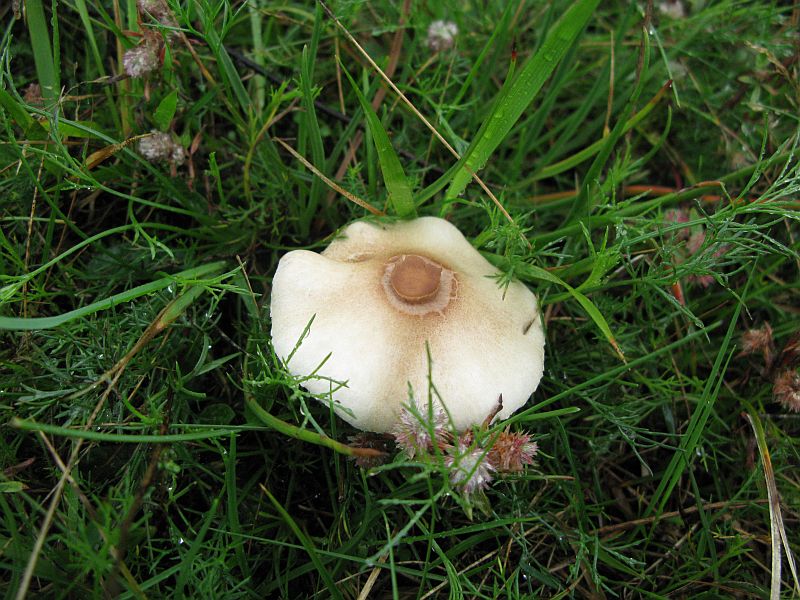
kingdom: Fungi
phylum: Basidiomycota
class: Agaricomycetes
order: Agaricales
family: Agaricaceae
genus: Lepiota
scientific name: Lepiota oreadiformis
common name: blegbrun parasolhat
